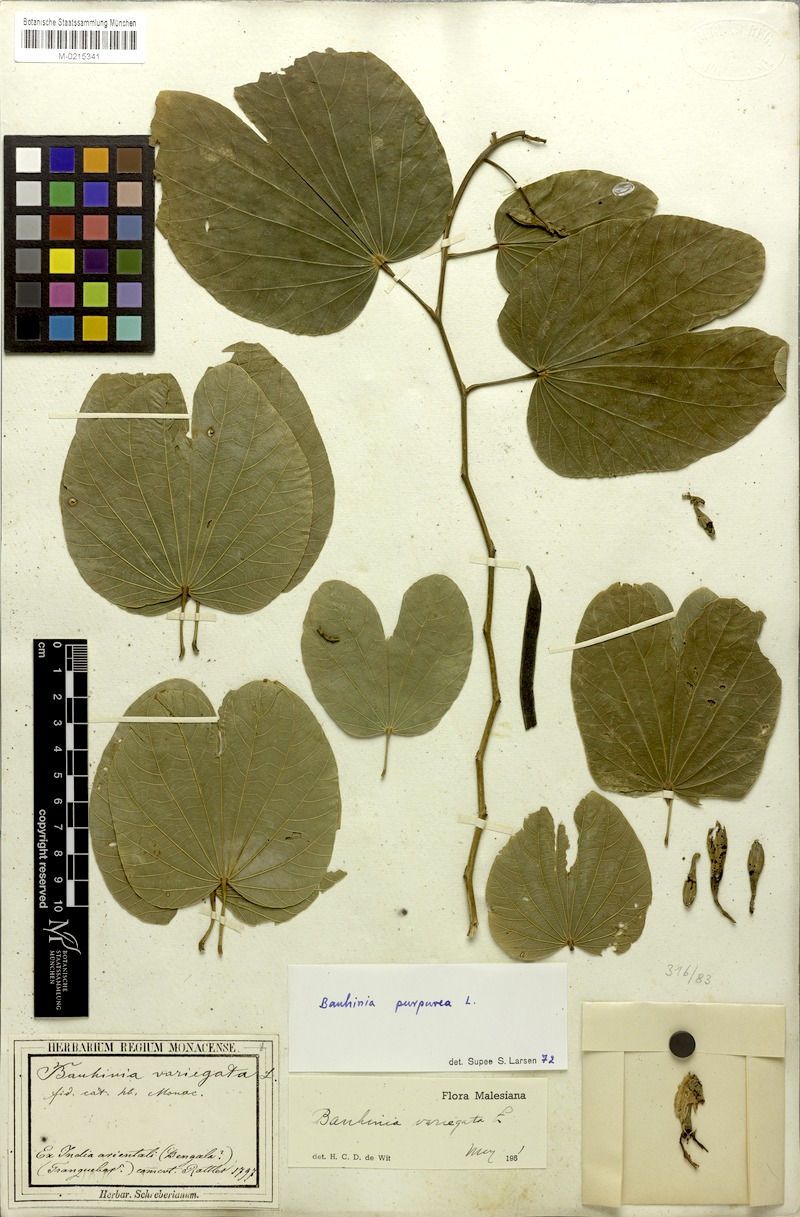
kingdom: Plantae
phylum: Tracheophyta
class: Magnoliopsida
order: Fabales
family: Fabaceae
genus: Bauhinia
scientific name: Bauhinia purpurea
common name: Butterfly-tree
